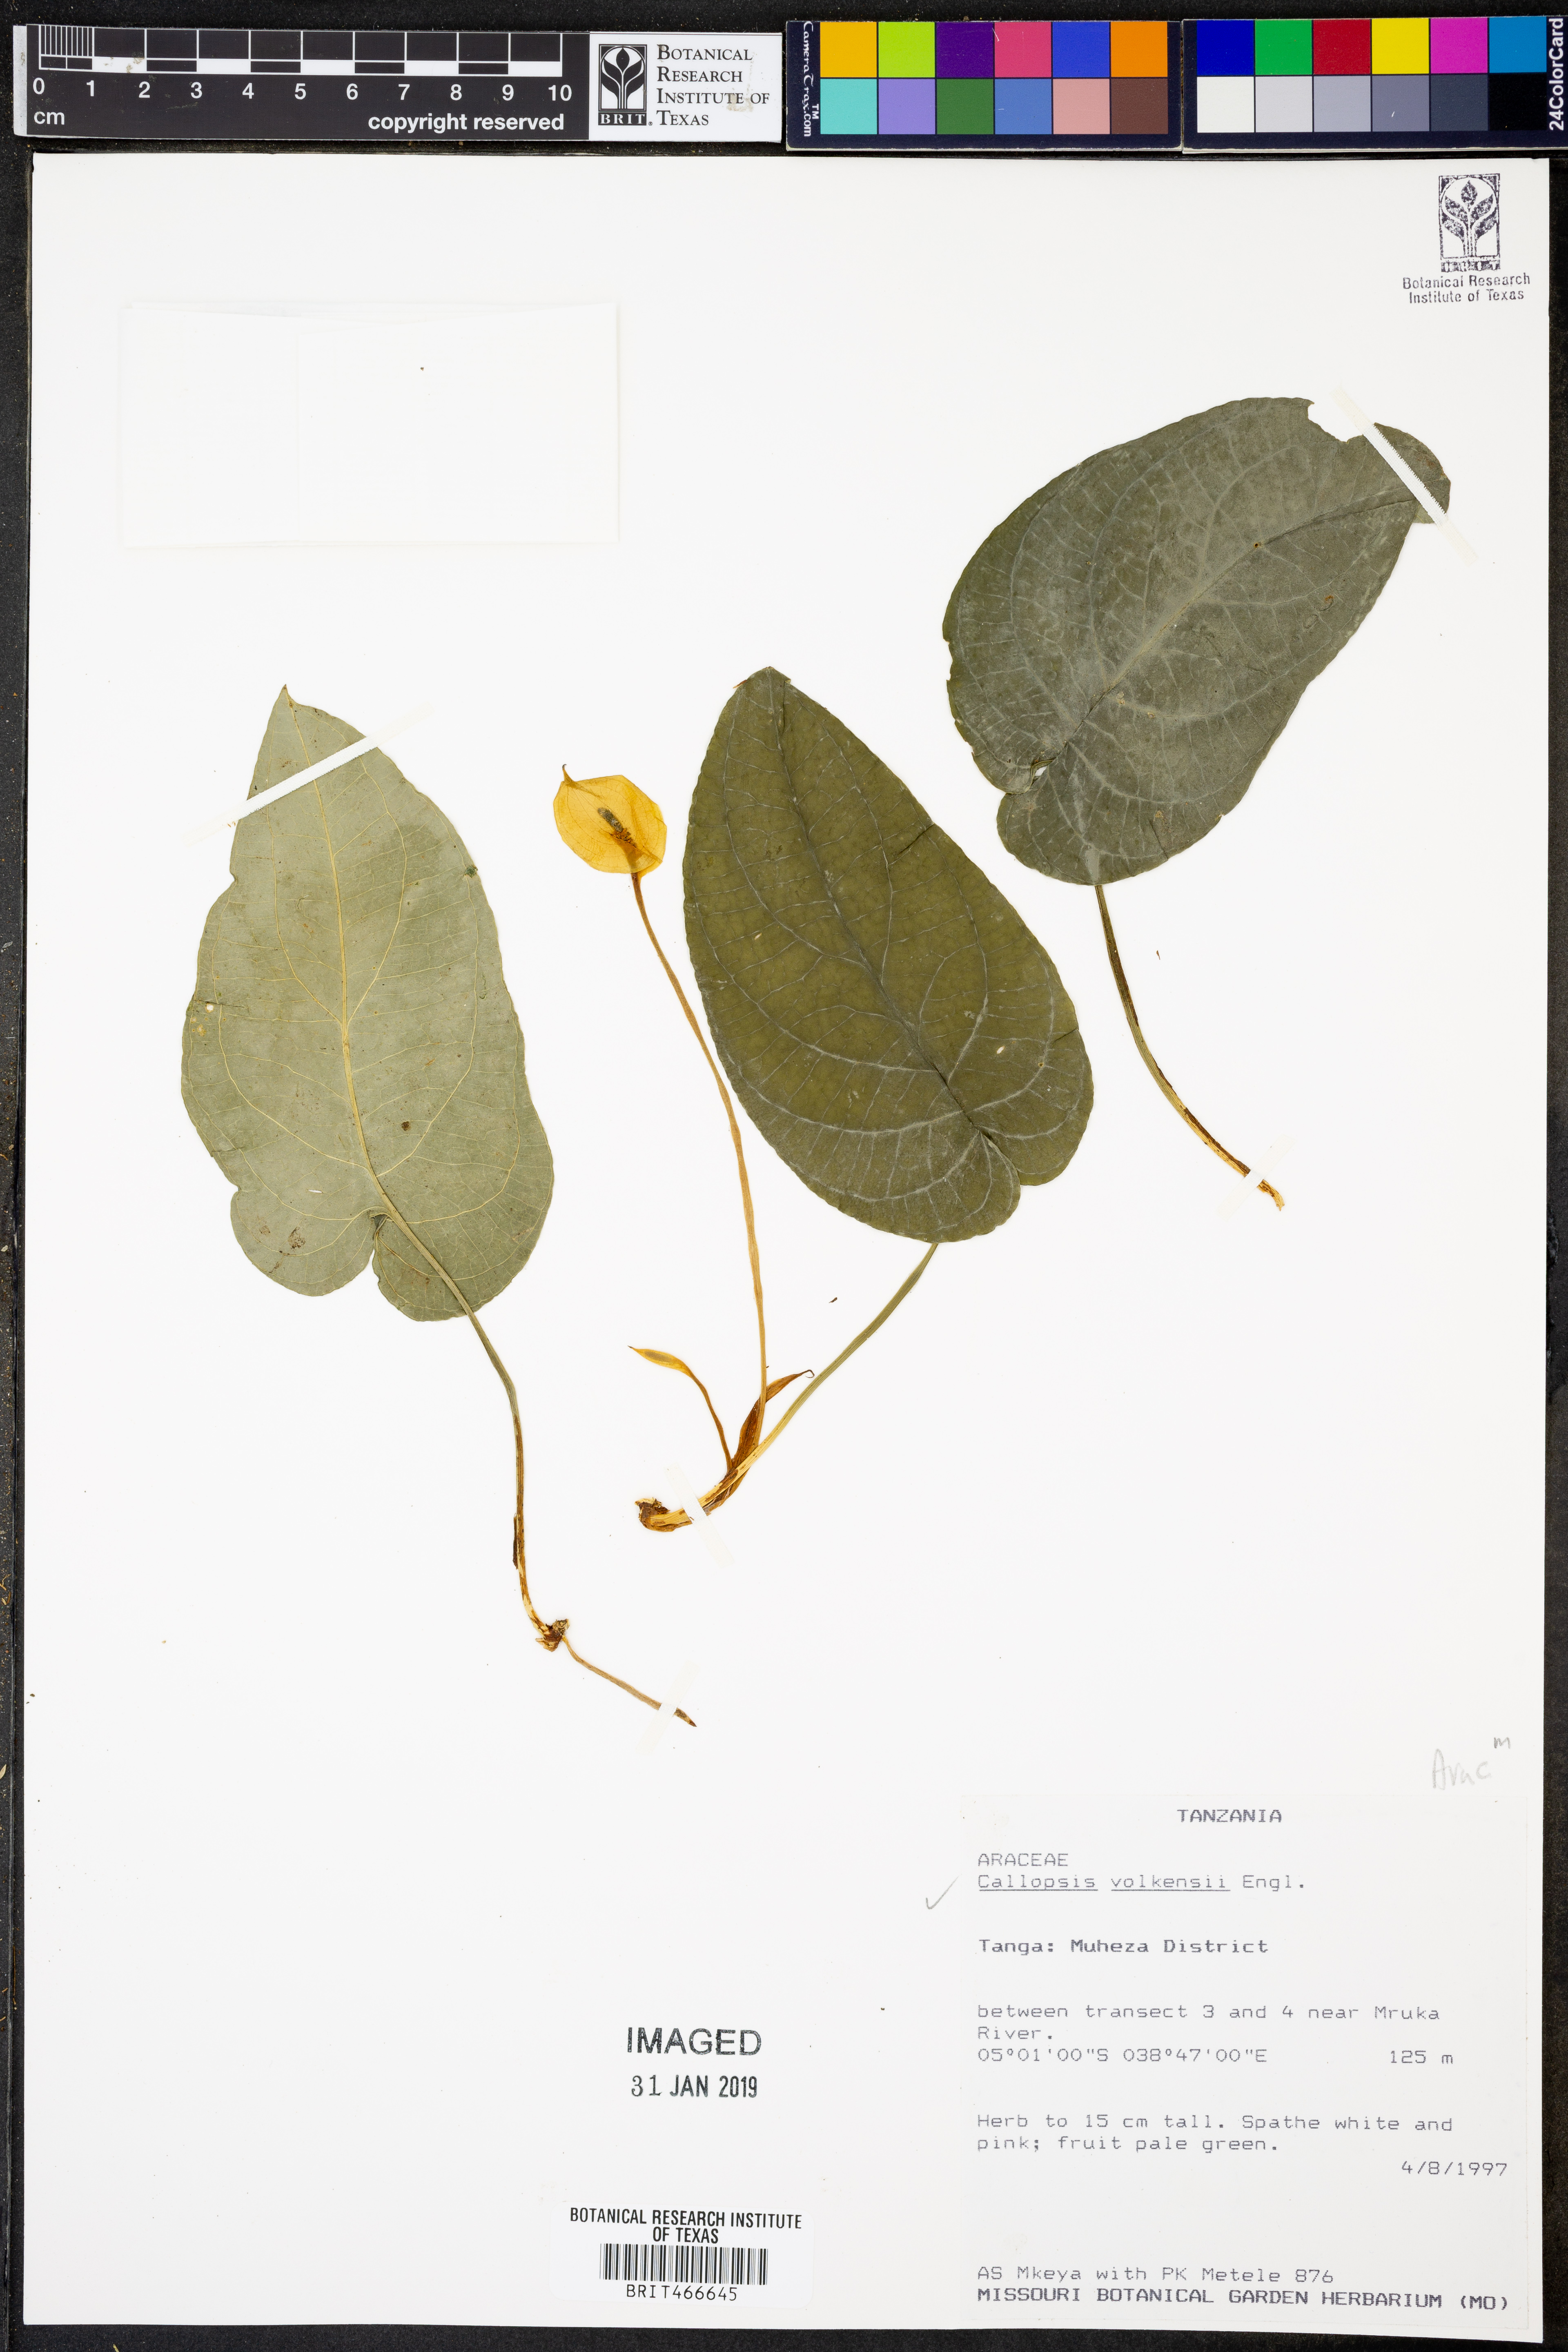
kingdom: Plantae
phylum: Tracheophyta
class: Liliopsida
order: Alismatales
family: Araceae
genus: Callopsis
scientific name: Callopsis volkensii
